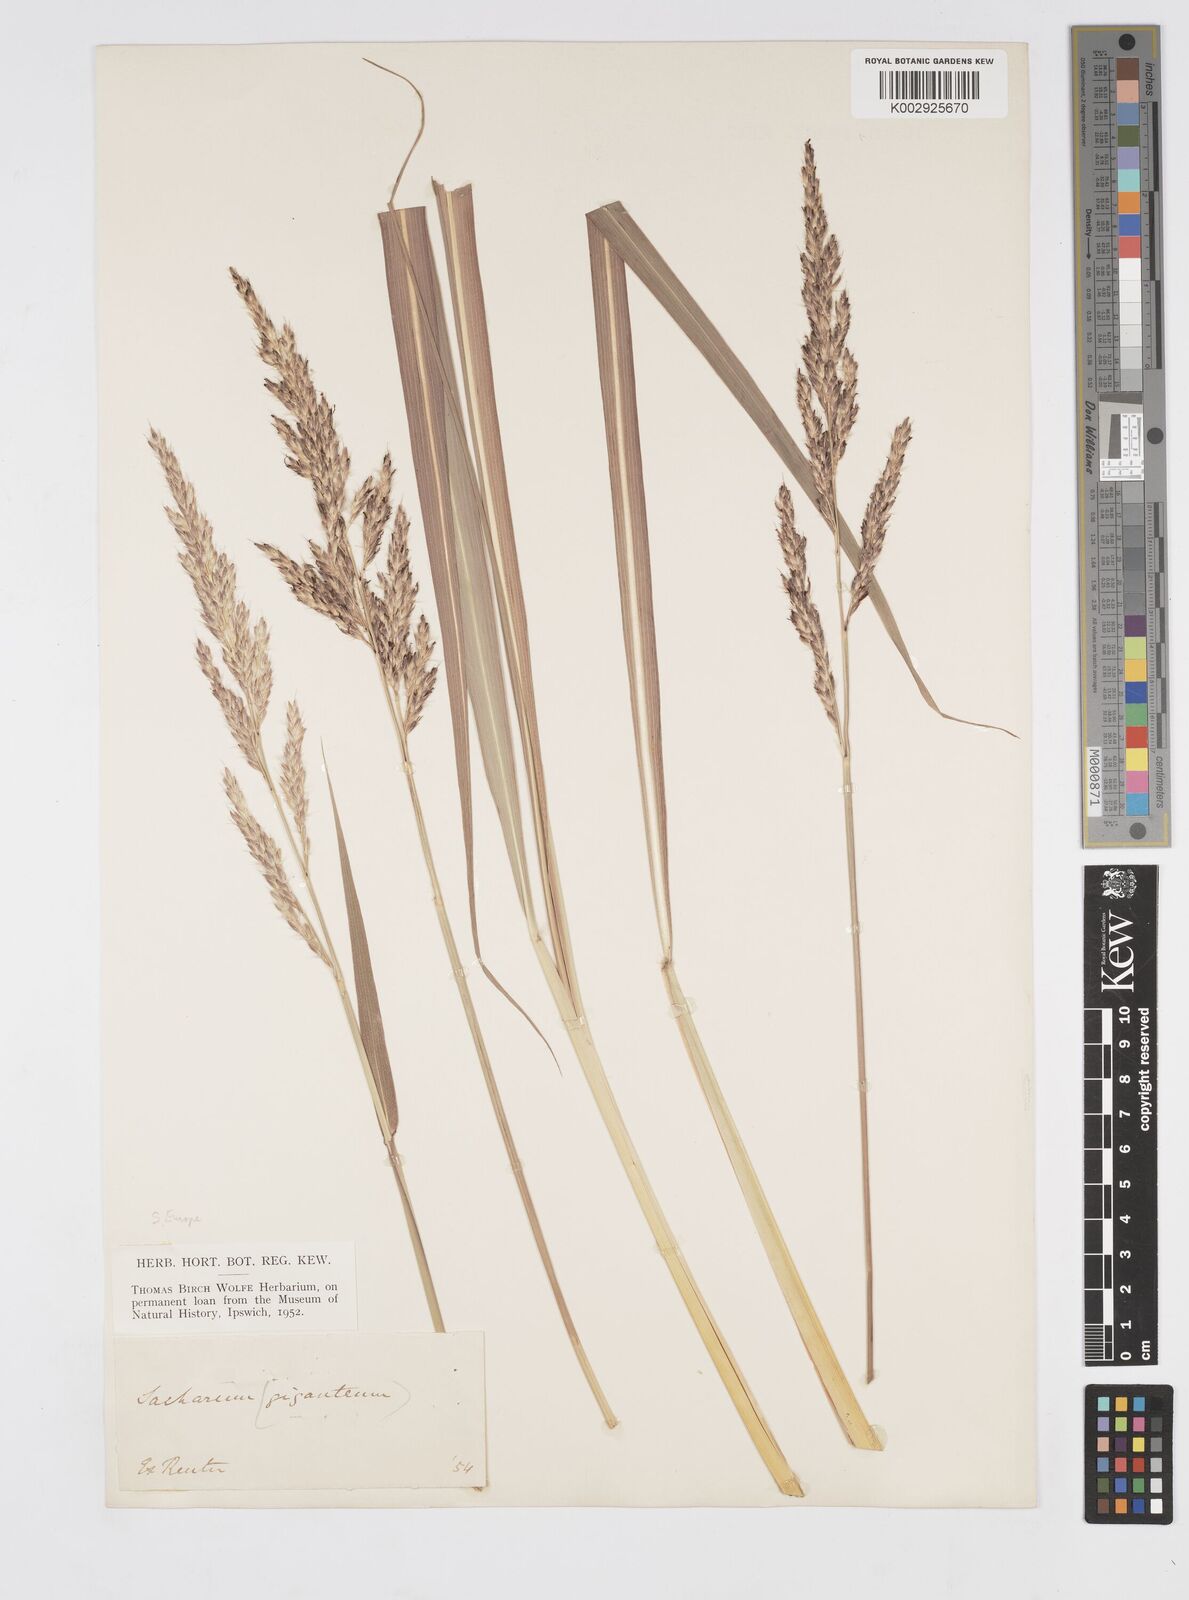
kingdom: Plantae
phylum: Tracheophyta
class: Liliopsida
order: Poales
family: Poaceae
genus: Tripidium
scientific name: Tripidium strictum
